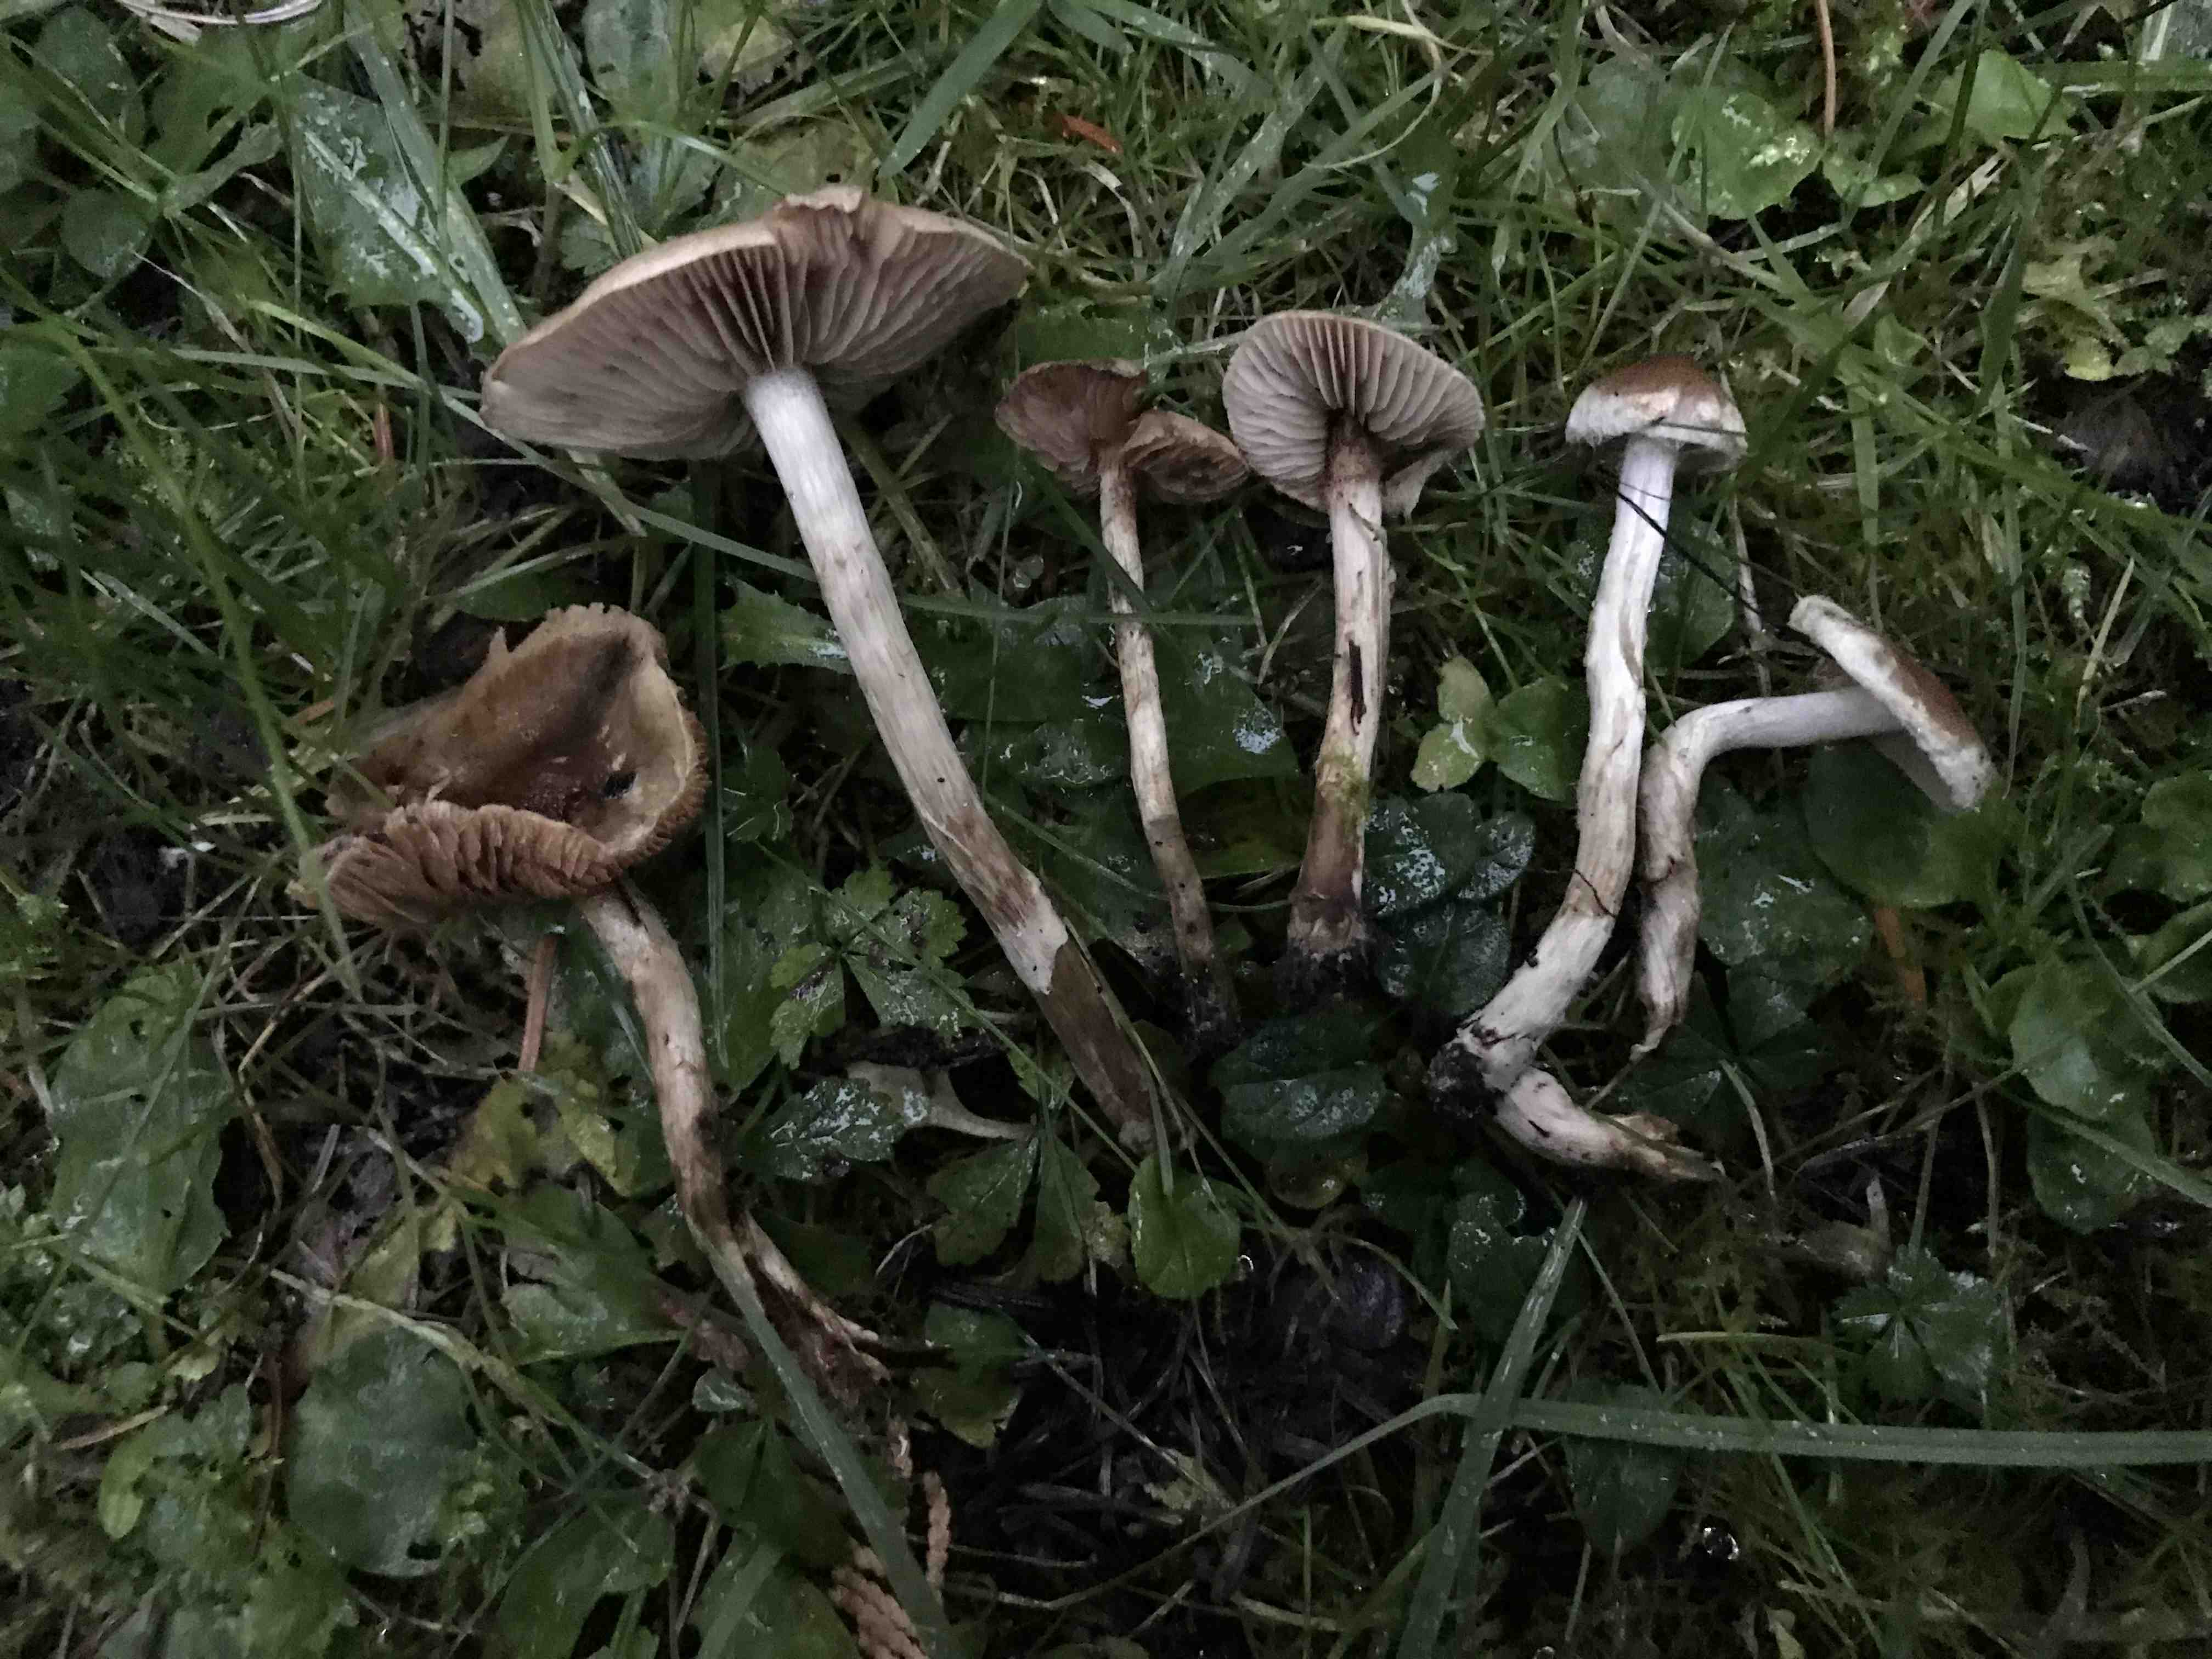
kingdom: Fungi
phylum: Basidiomycota
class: Agaricomycetes
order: Agaricales
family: Hymenogastraceae
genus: Hebeloma
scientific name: Hebeloma mesophaeum
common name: lerbrun tåreblad
